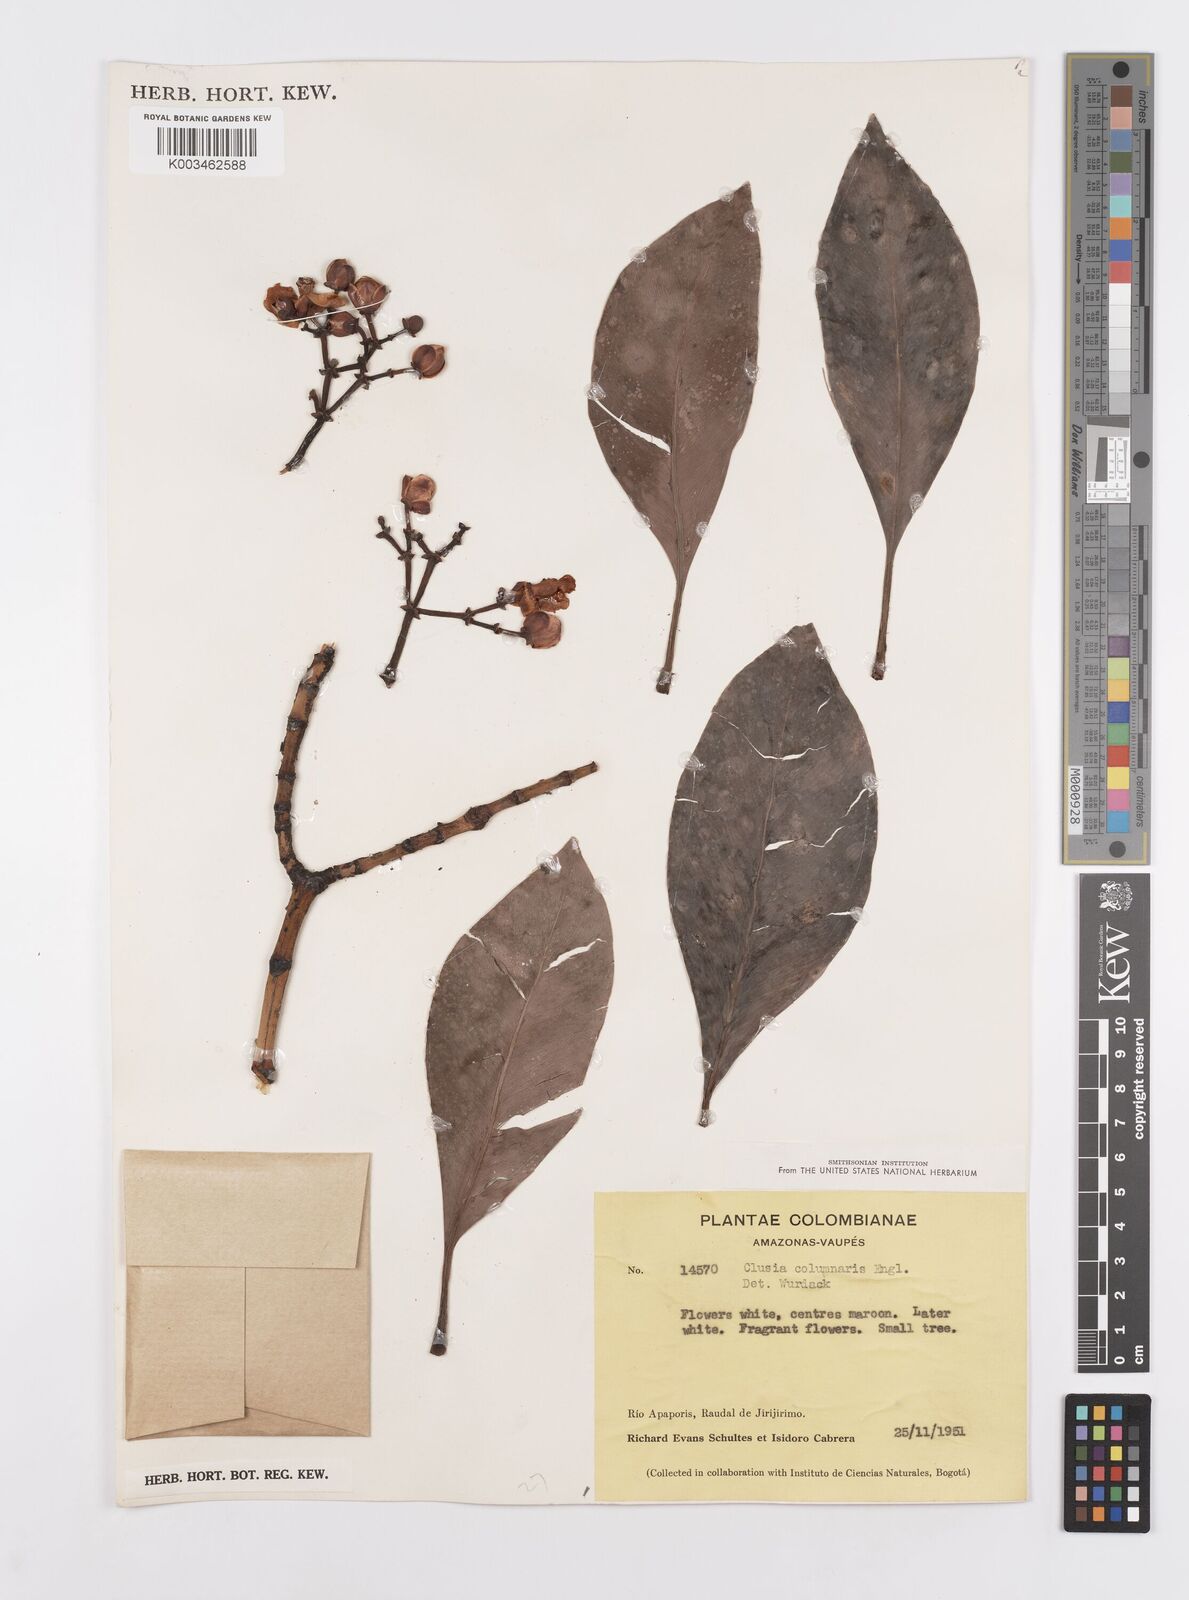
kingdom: Plantae
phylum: Tracheophyta
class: Magnoliopsida
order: Malpighiales
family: Clusiaceae
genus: Clusia
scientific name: Clusia columnaris
